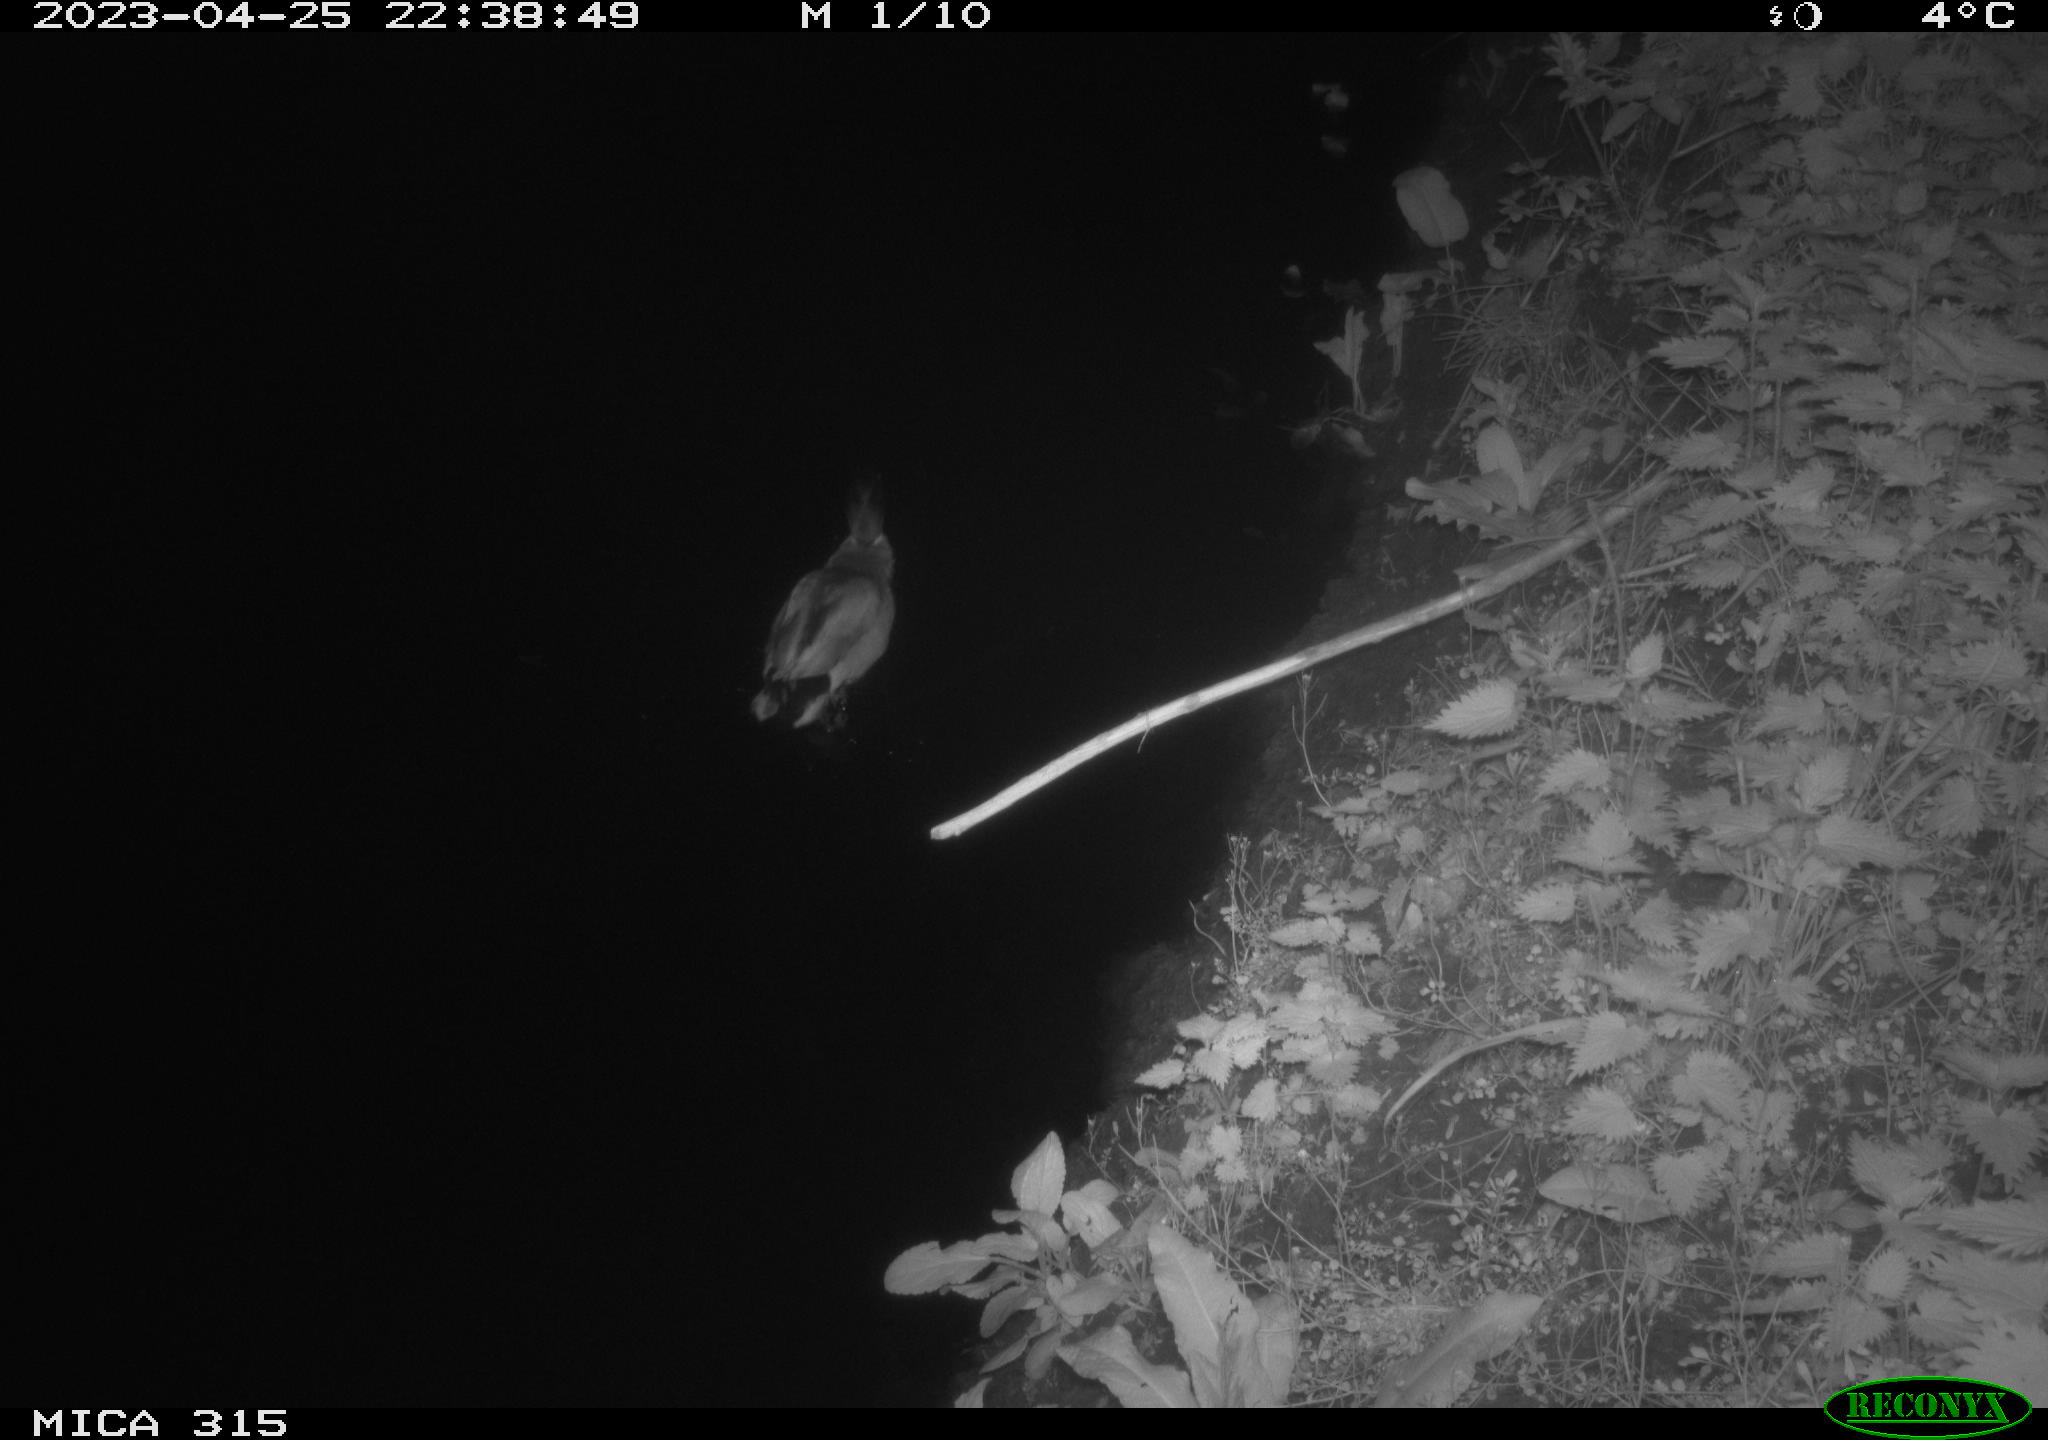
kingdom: Animalia
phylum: Chordata
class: Aves
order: Anseriformes
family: Anatidae
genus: Anas
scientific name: Anas
